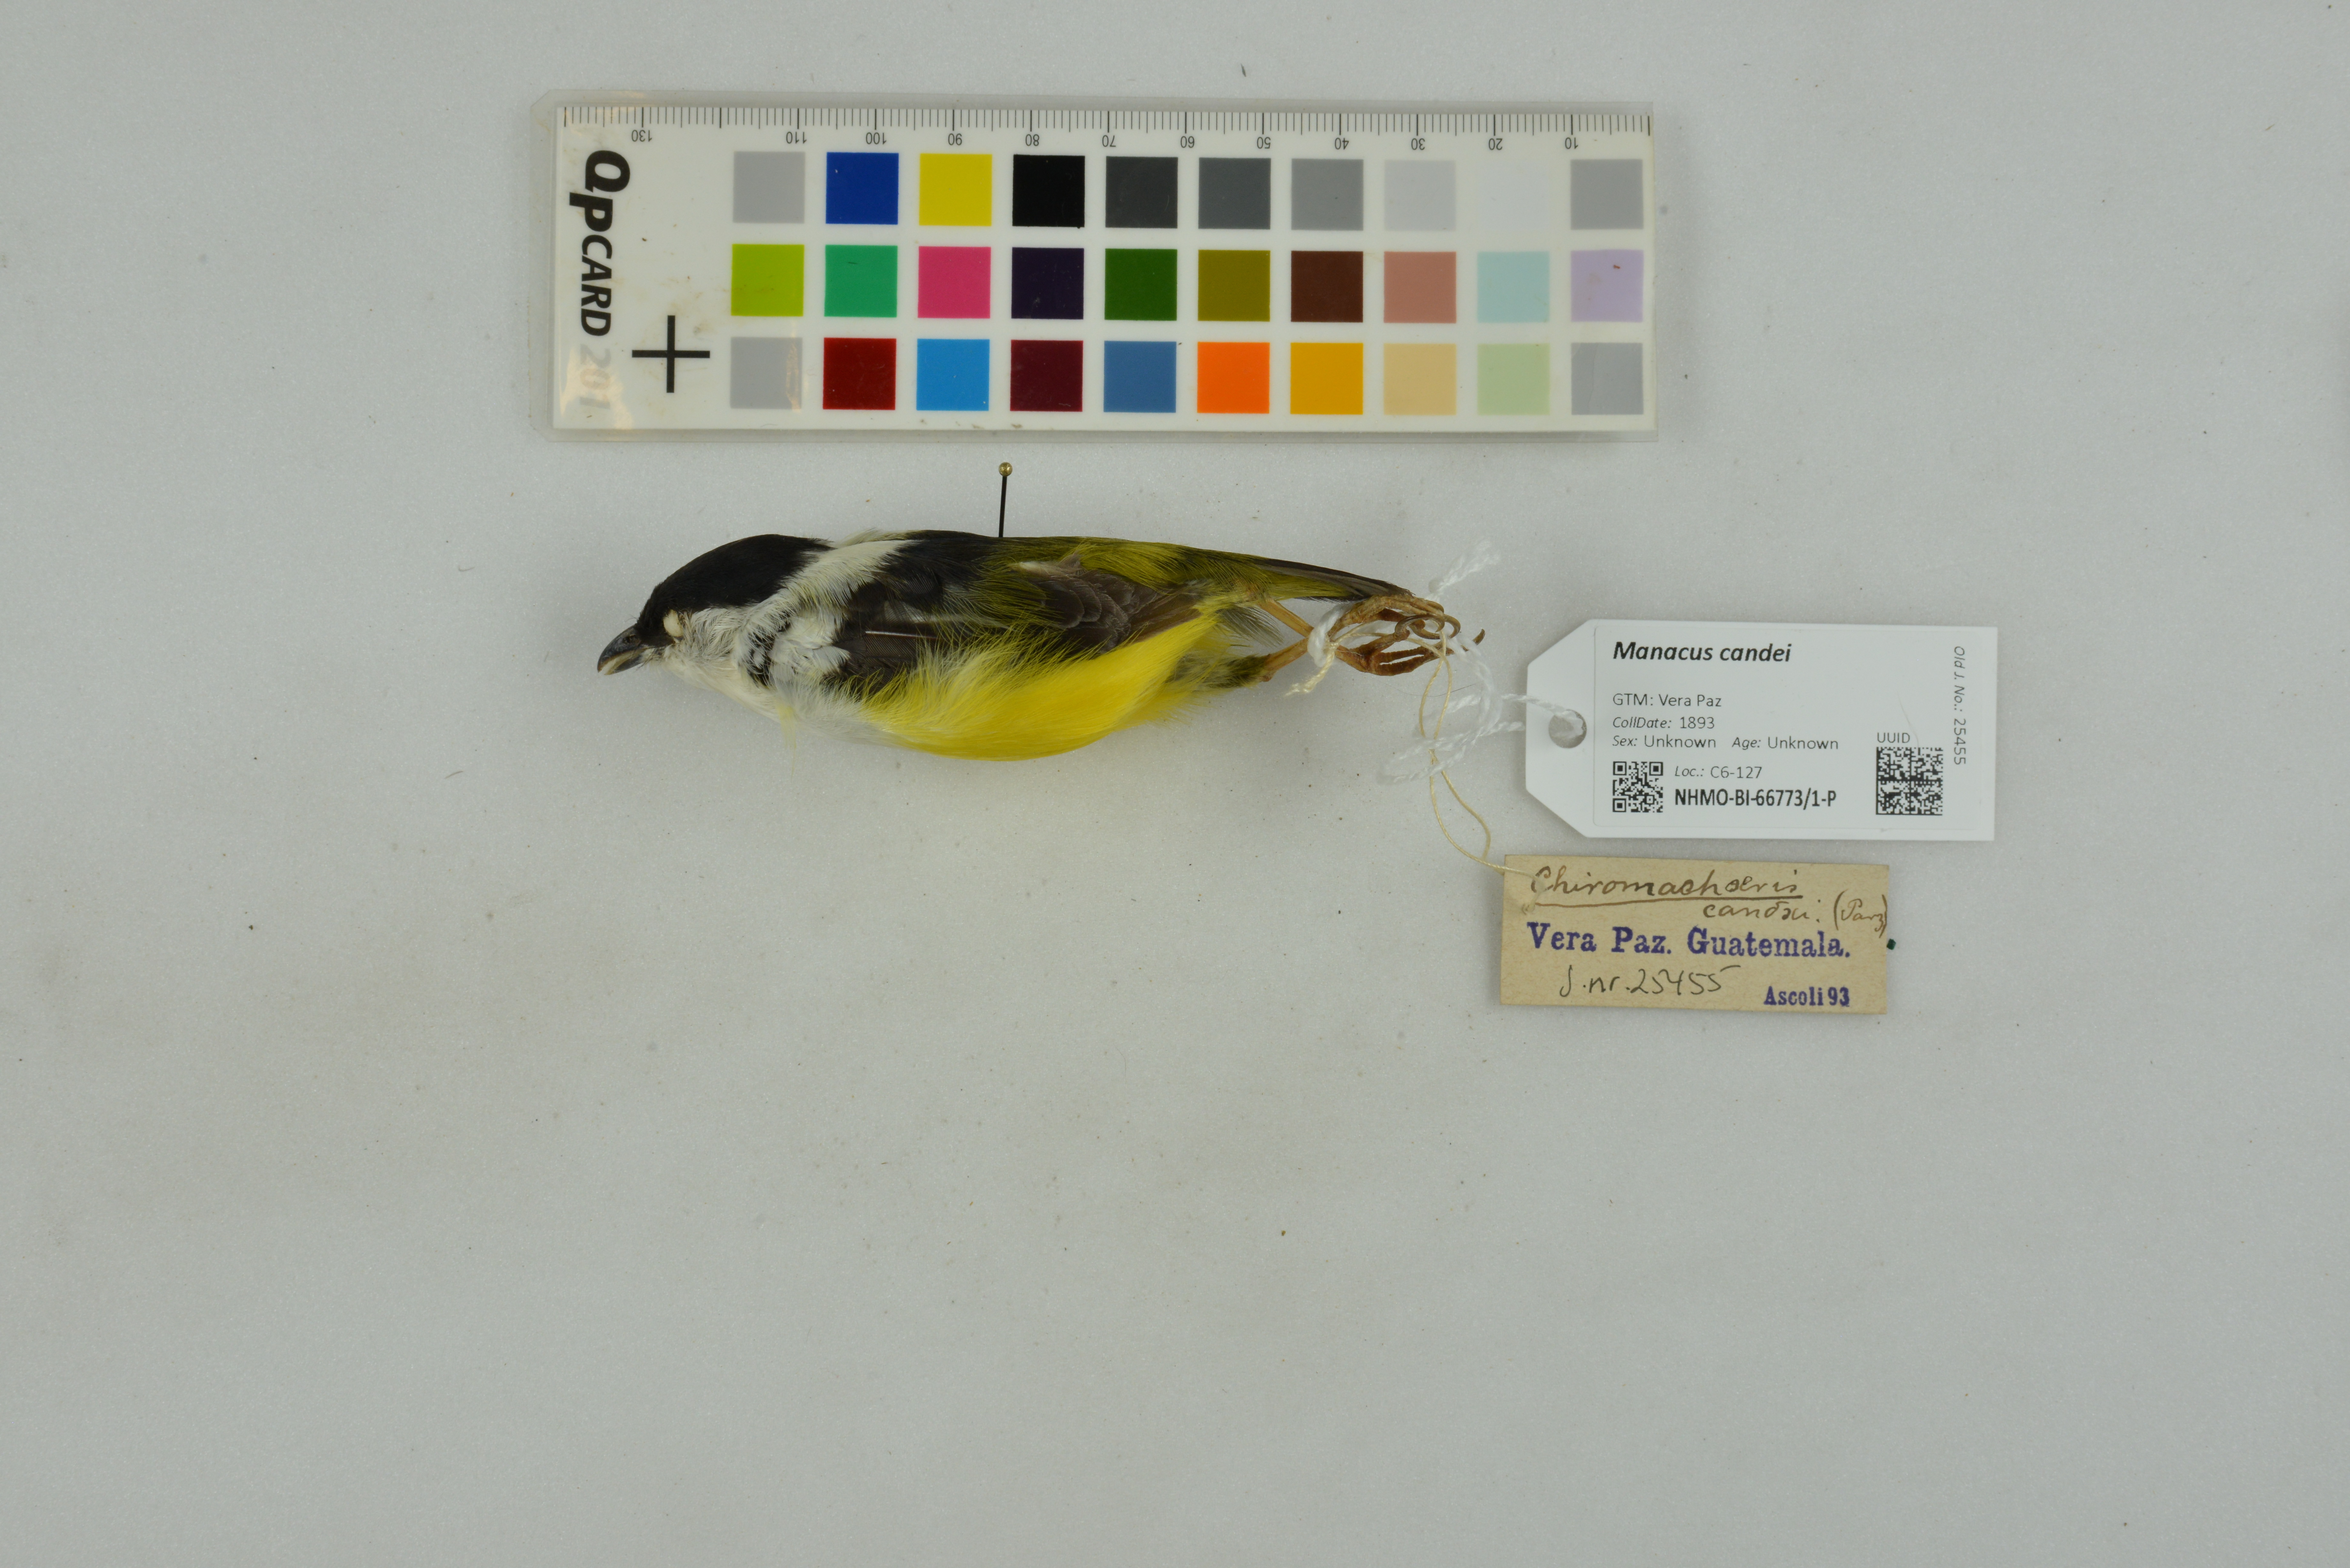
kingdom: Animalia
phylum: Chordata
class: Aves
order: Passeriformes
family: Pipridae
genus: Manacus
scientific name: Manacus candei
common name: White-collared manakin
